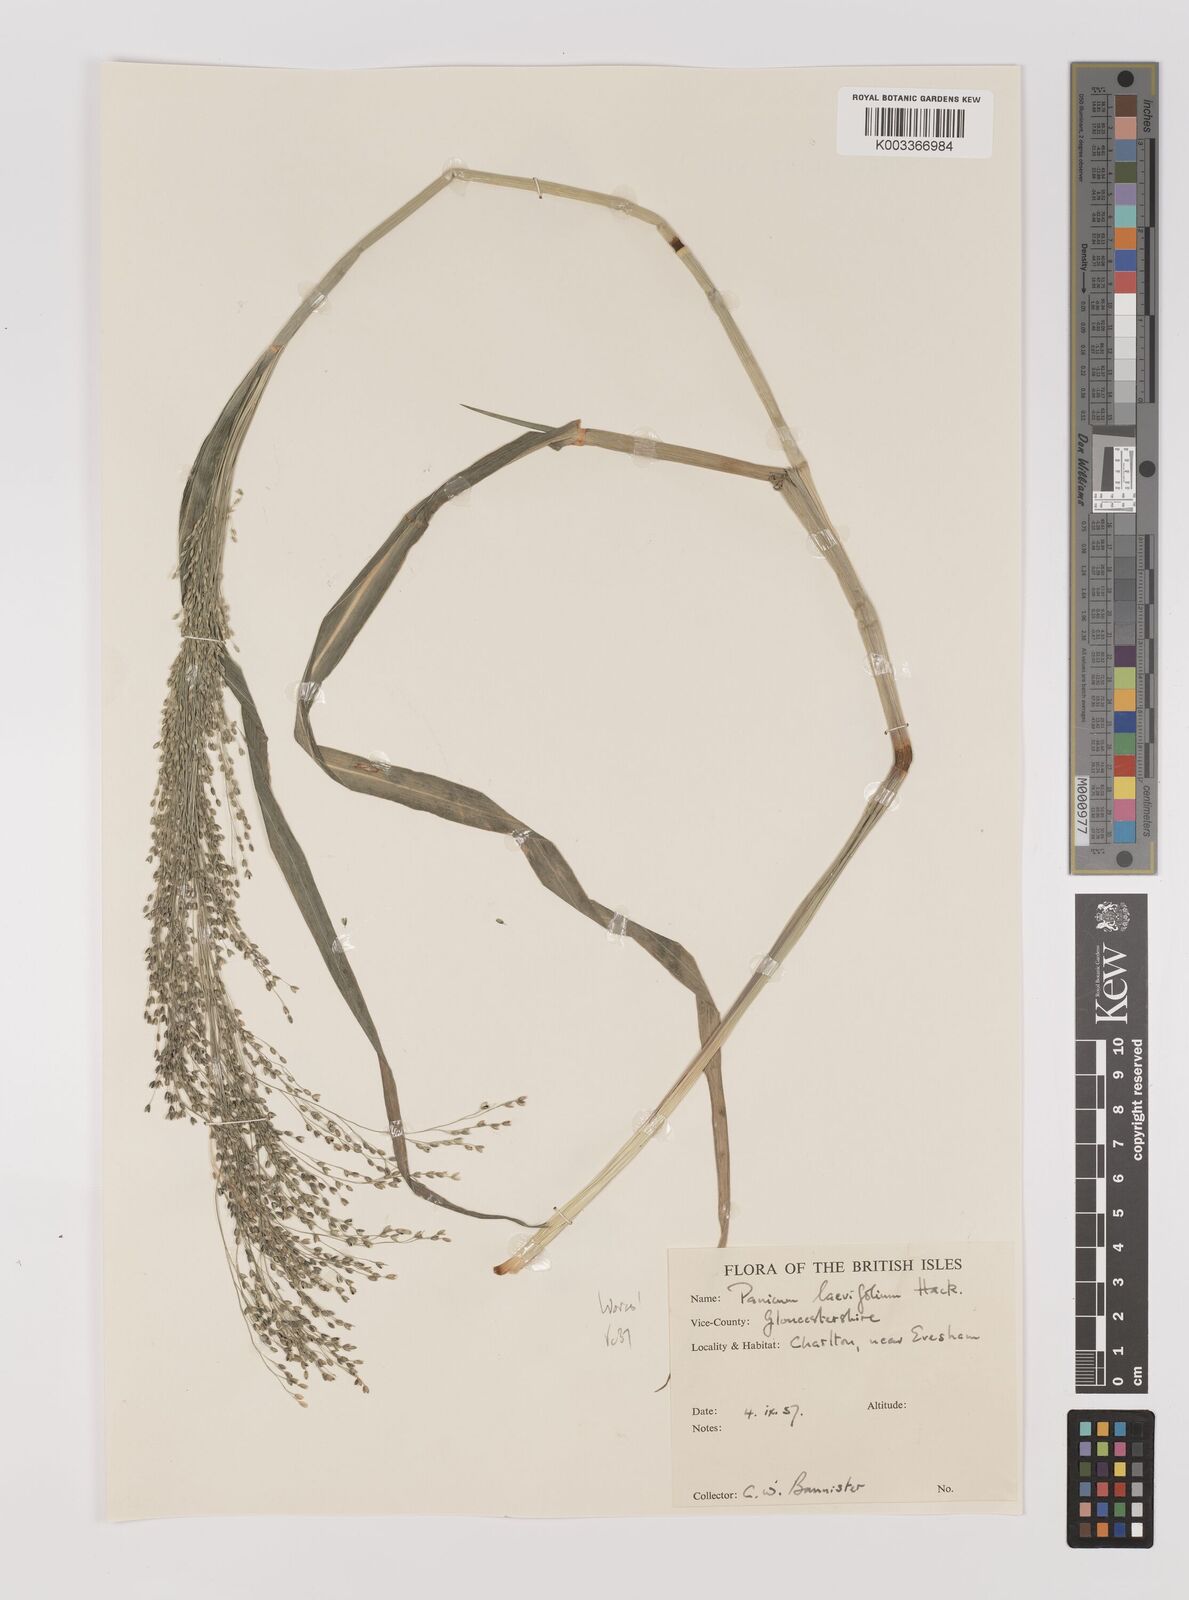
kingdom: Plantae
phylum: Tracheophyta
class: Liliopsida
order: Poales
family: Poaceae
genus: Panicum
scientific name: Panicum schinzii
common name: Sweet grass
